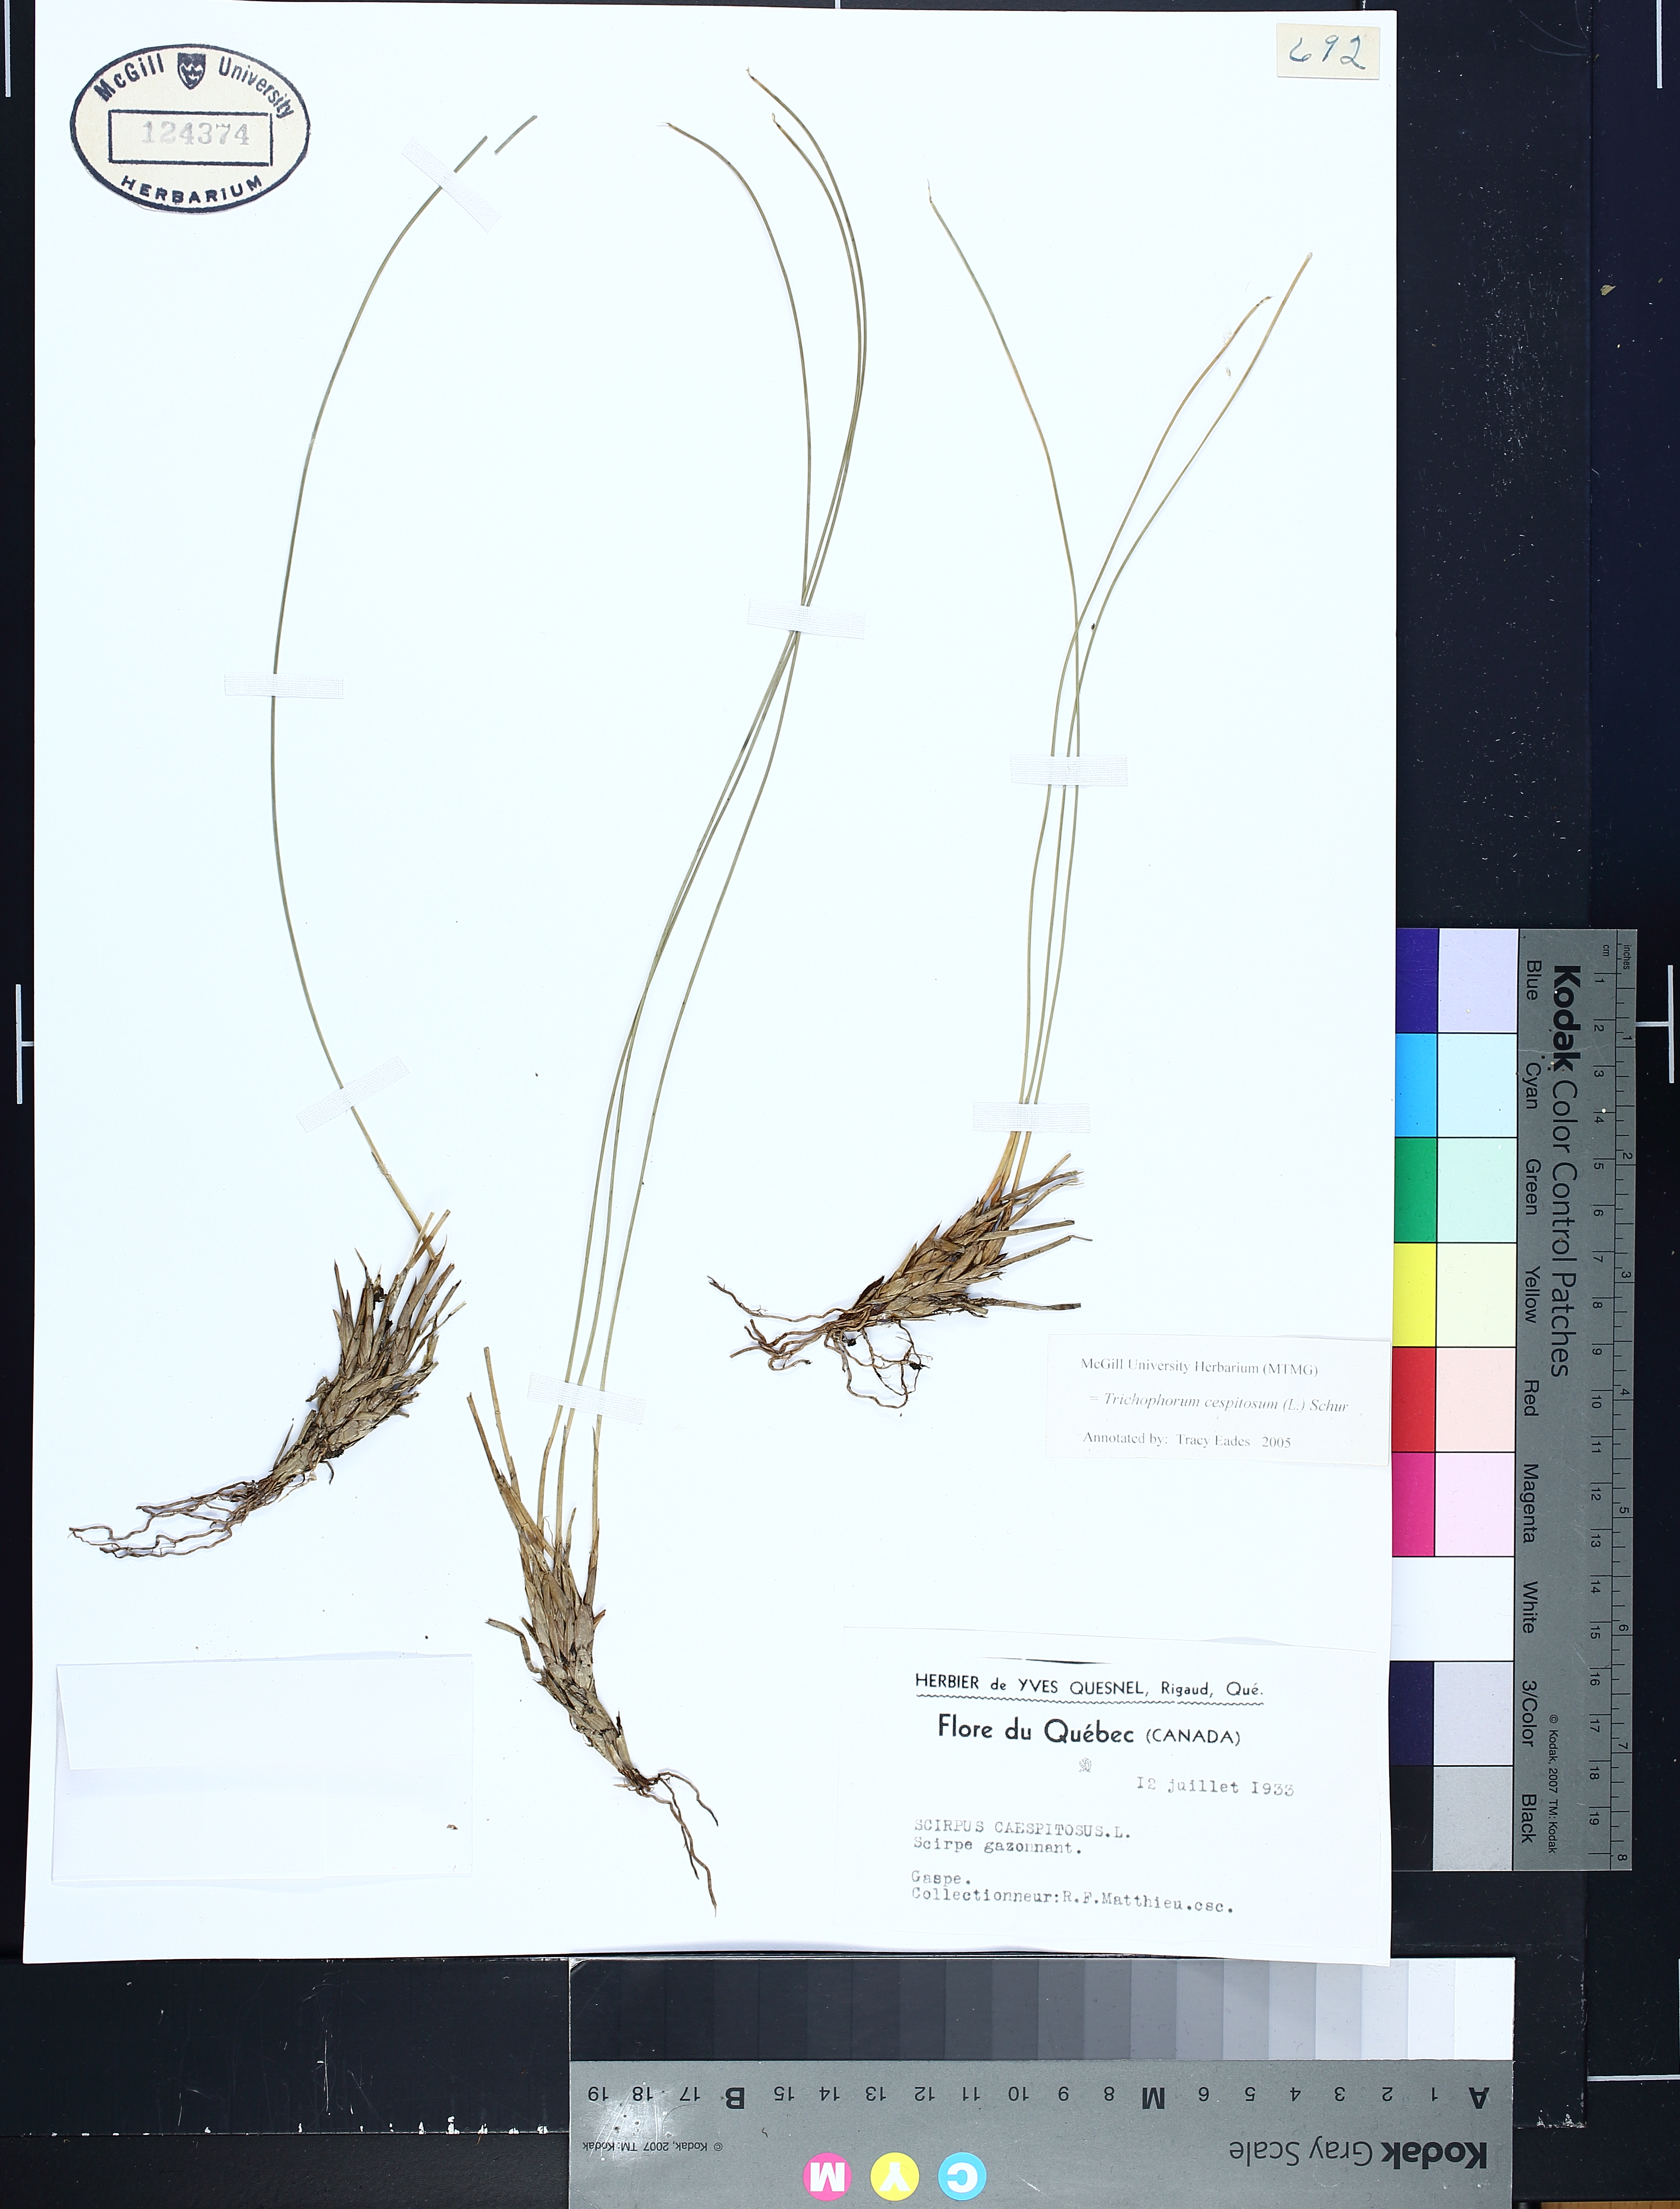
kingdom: Plantae
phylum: Tracheophyta
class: Liliopsida
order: Poales
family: Cyperaceae
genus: Trichophorum
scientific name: Trichophorum cespitosum
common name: Cespitose bulrush
